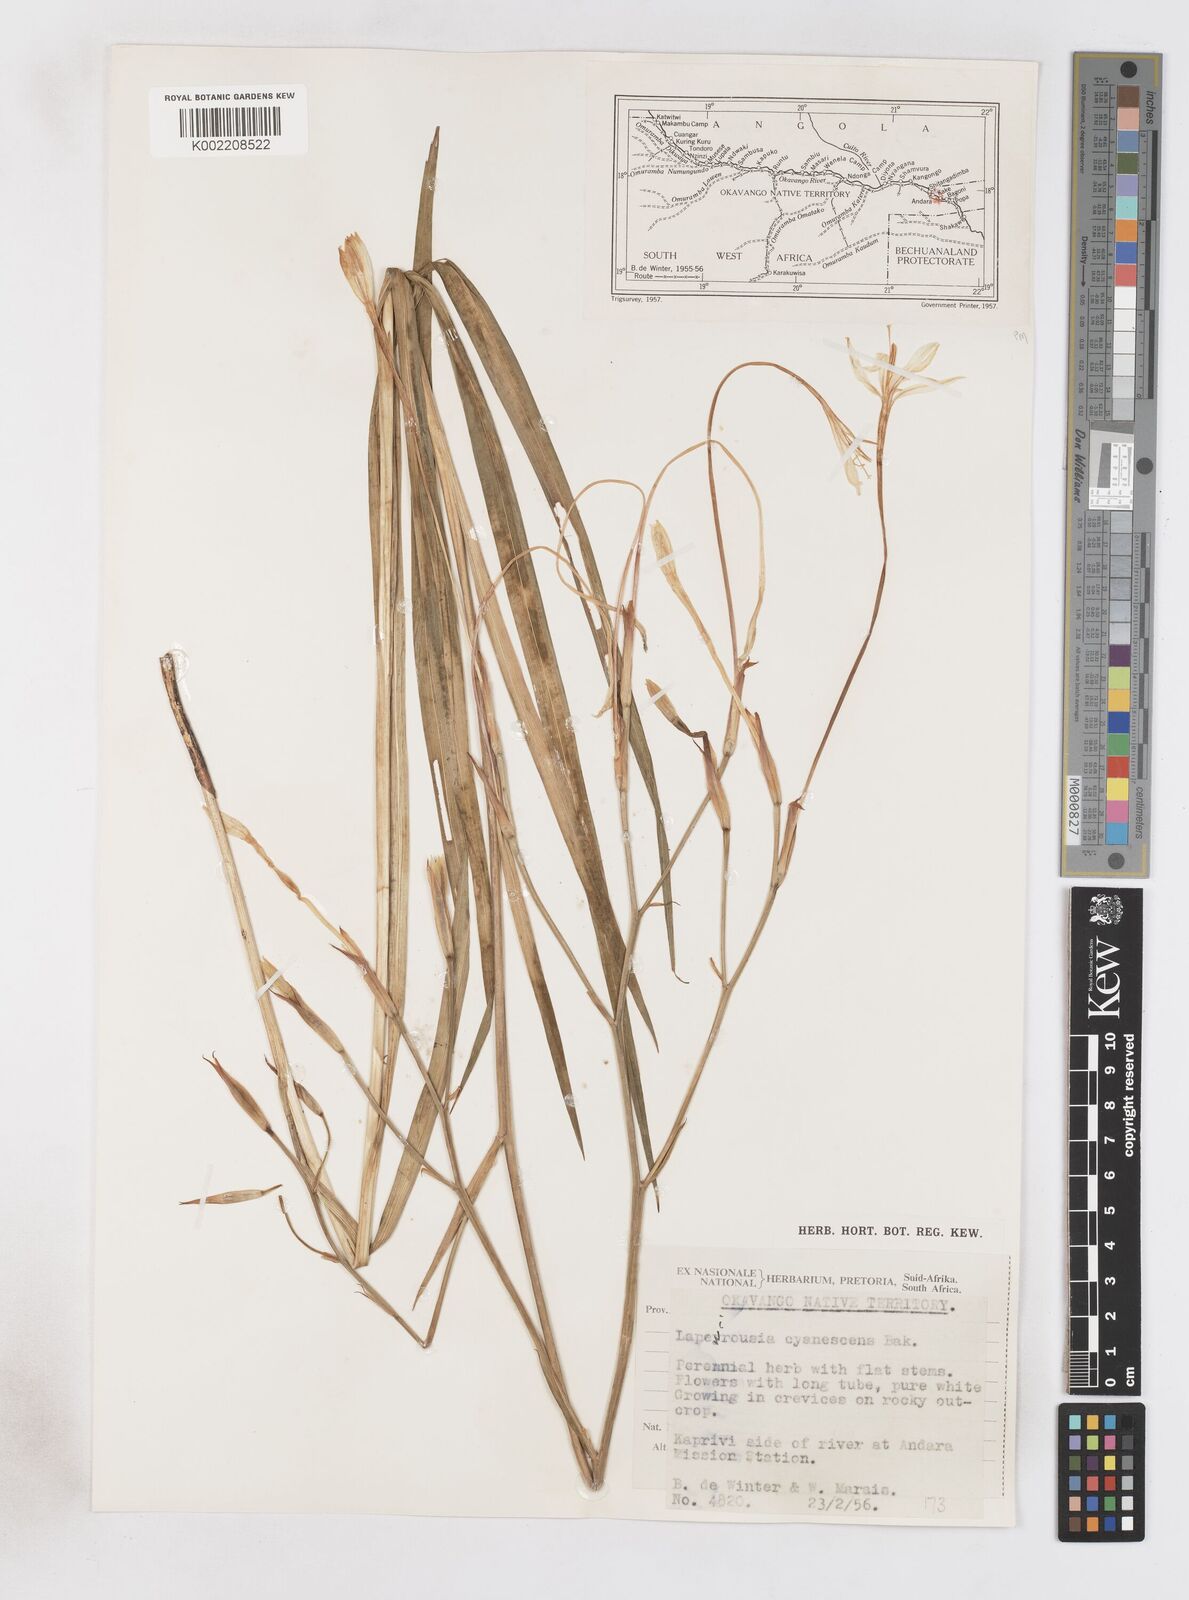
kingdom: Plantae
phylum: Tracheophyta
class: Liliopsida
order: Asparagales
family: Iridaceae
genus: Afrosolen
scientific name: Afrosolen schimperi
